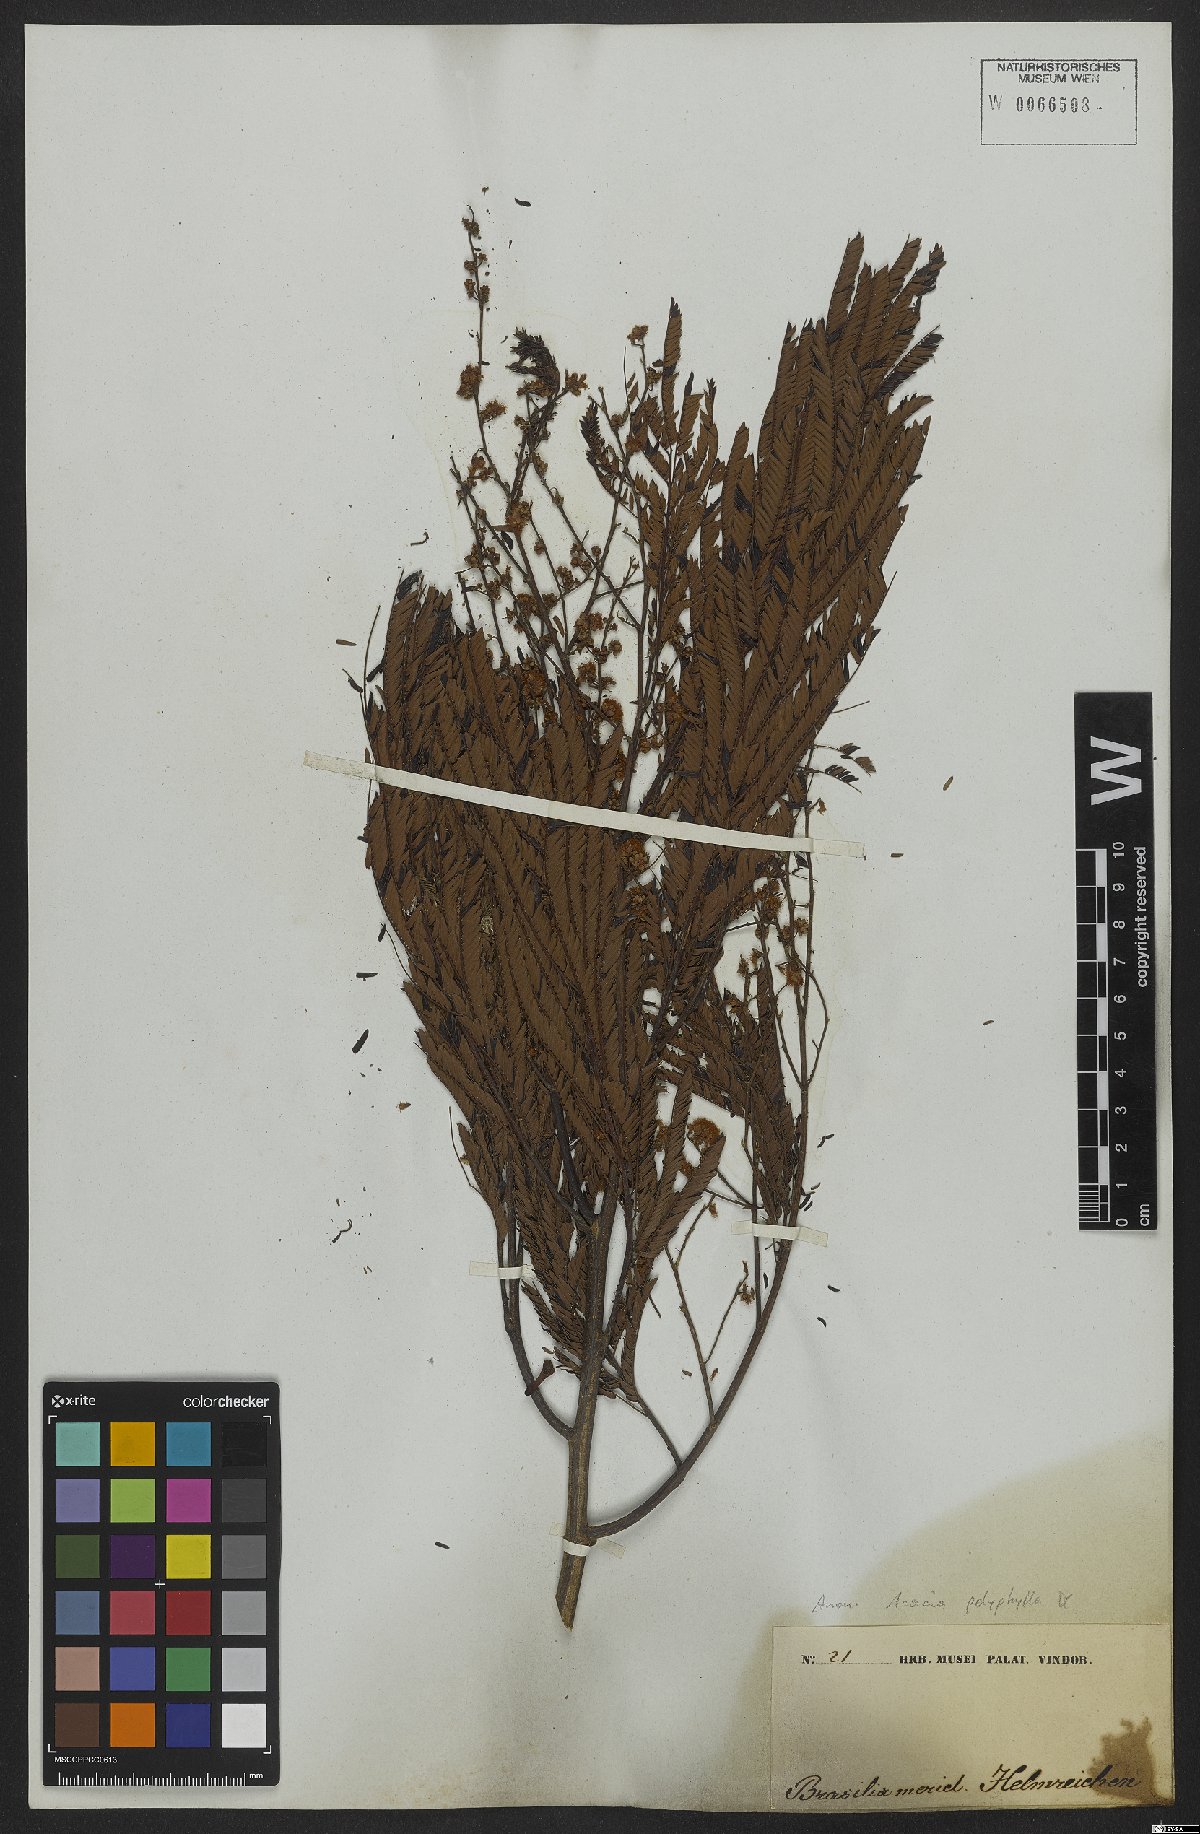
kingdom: Plantae
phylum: Tracheophyta
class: Magnoliopsida
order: Fabales
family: Fabaceae
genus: Senegalia
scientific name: Senegalia polyphylla
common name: White-tamarind
